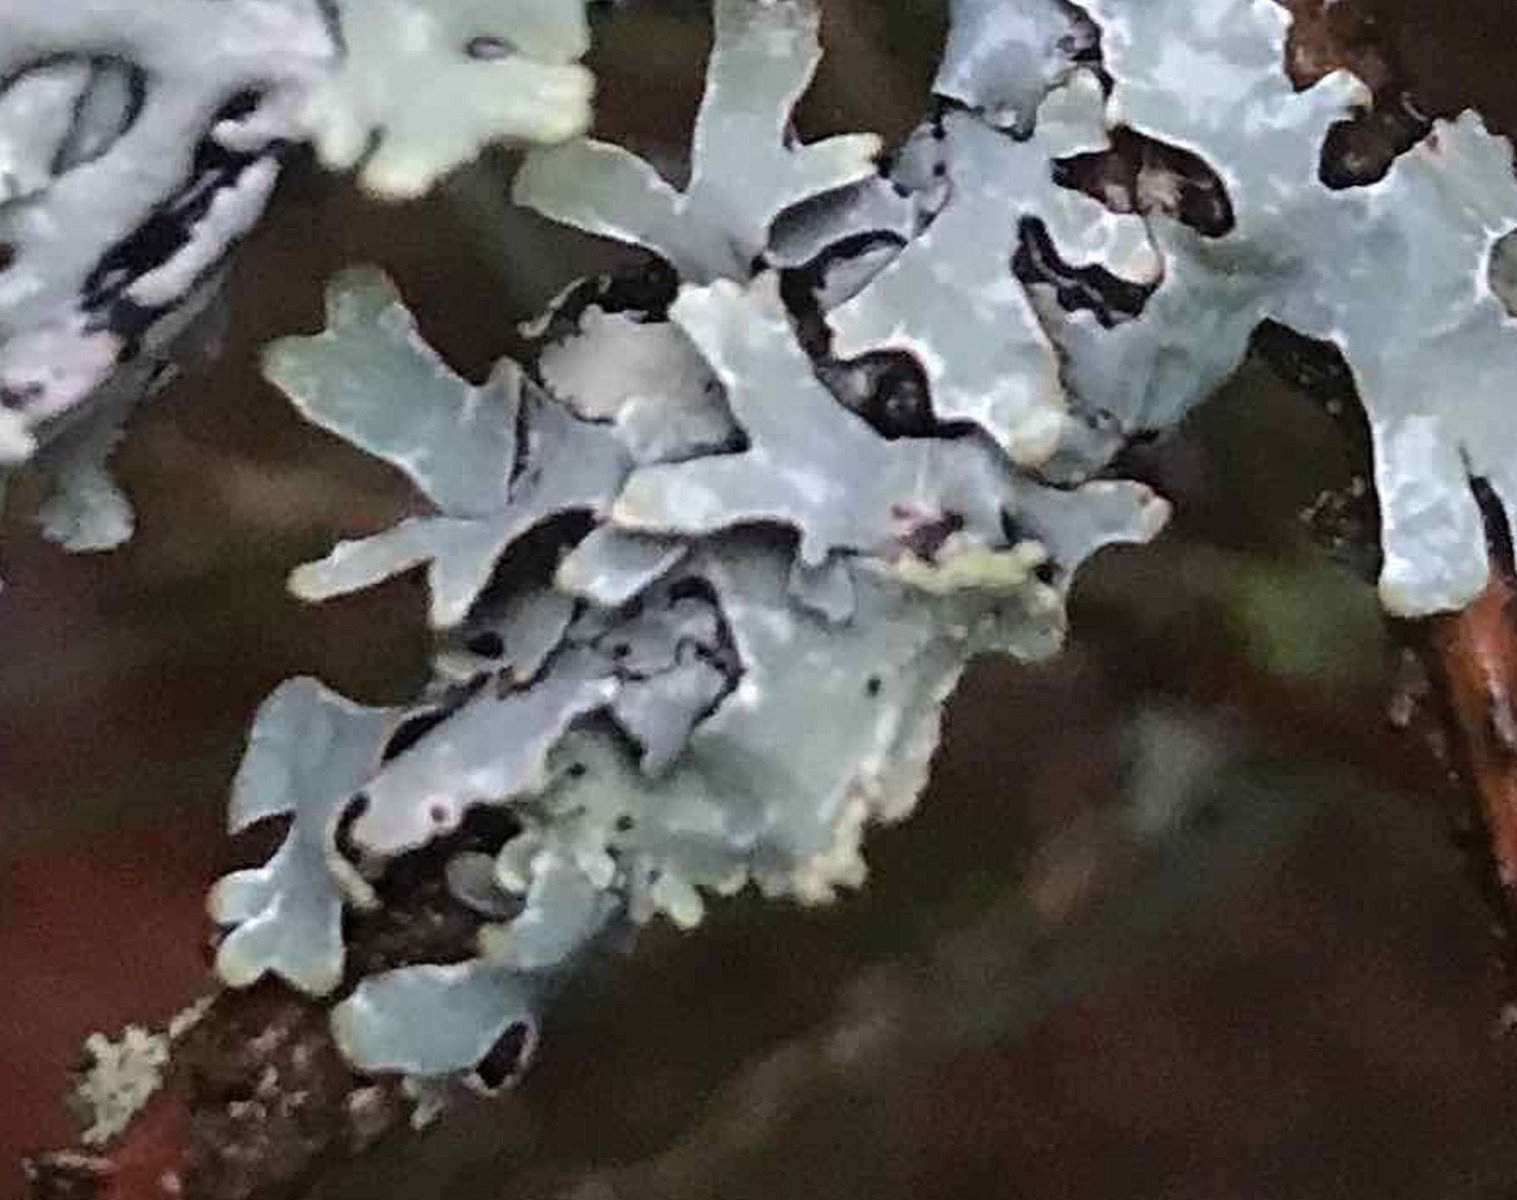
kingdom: Fungi
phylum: Ascomycota
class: Lecanoromycetes
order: Lecanorales
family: Parmeliaceae
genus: Parmelia
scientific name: Parmelia sulcata
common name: rynket skållav
